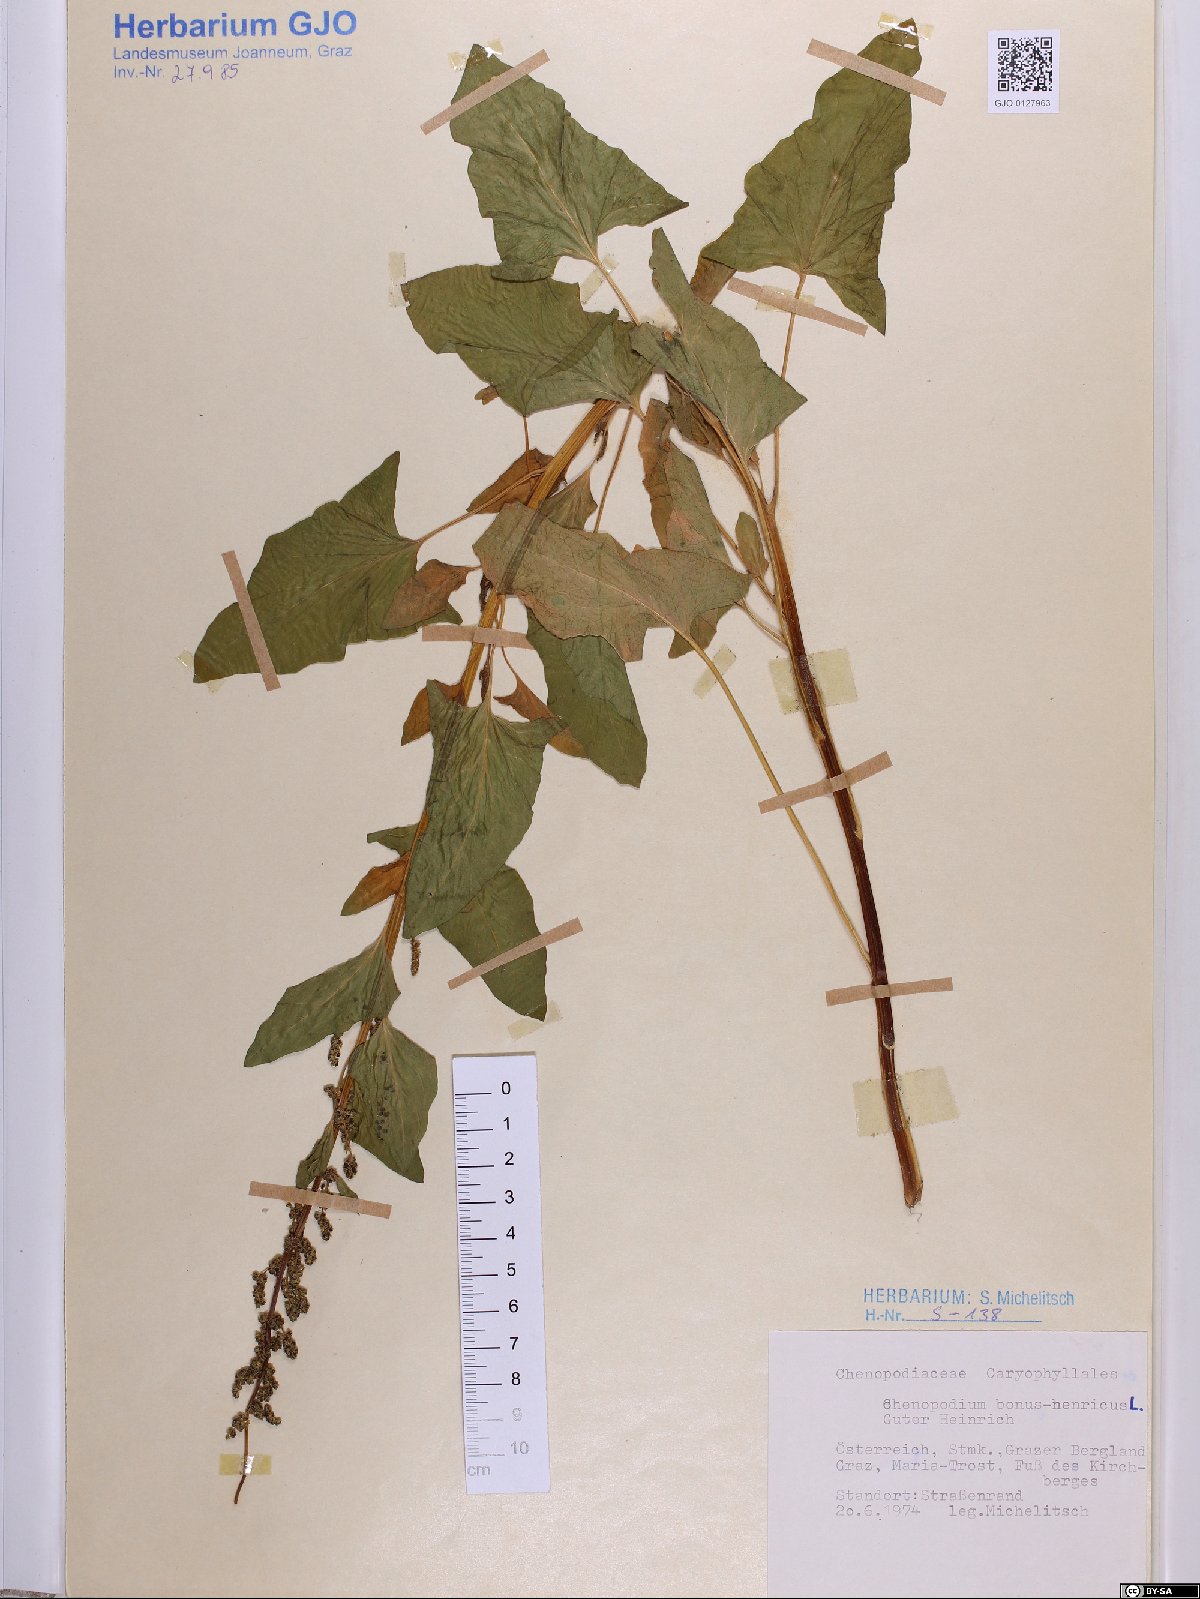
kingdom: Plantae
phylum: Tracheophyta
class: Magnoliopsida
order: Caryophyllales
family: Amaranthaceae
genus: Blitum
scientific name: Blitum bonus-henricus
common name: Good king henry
